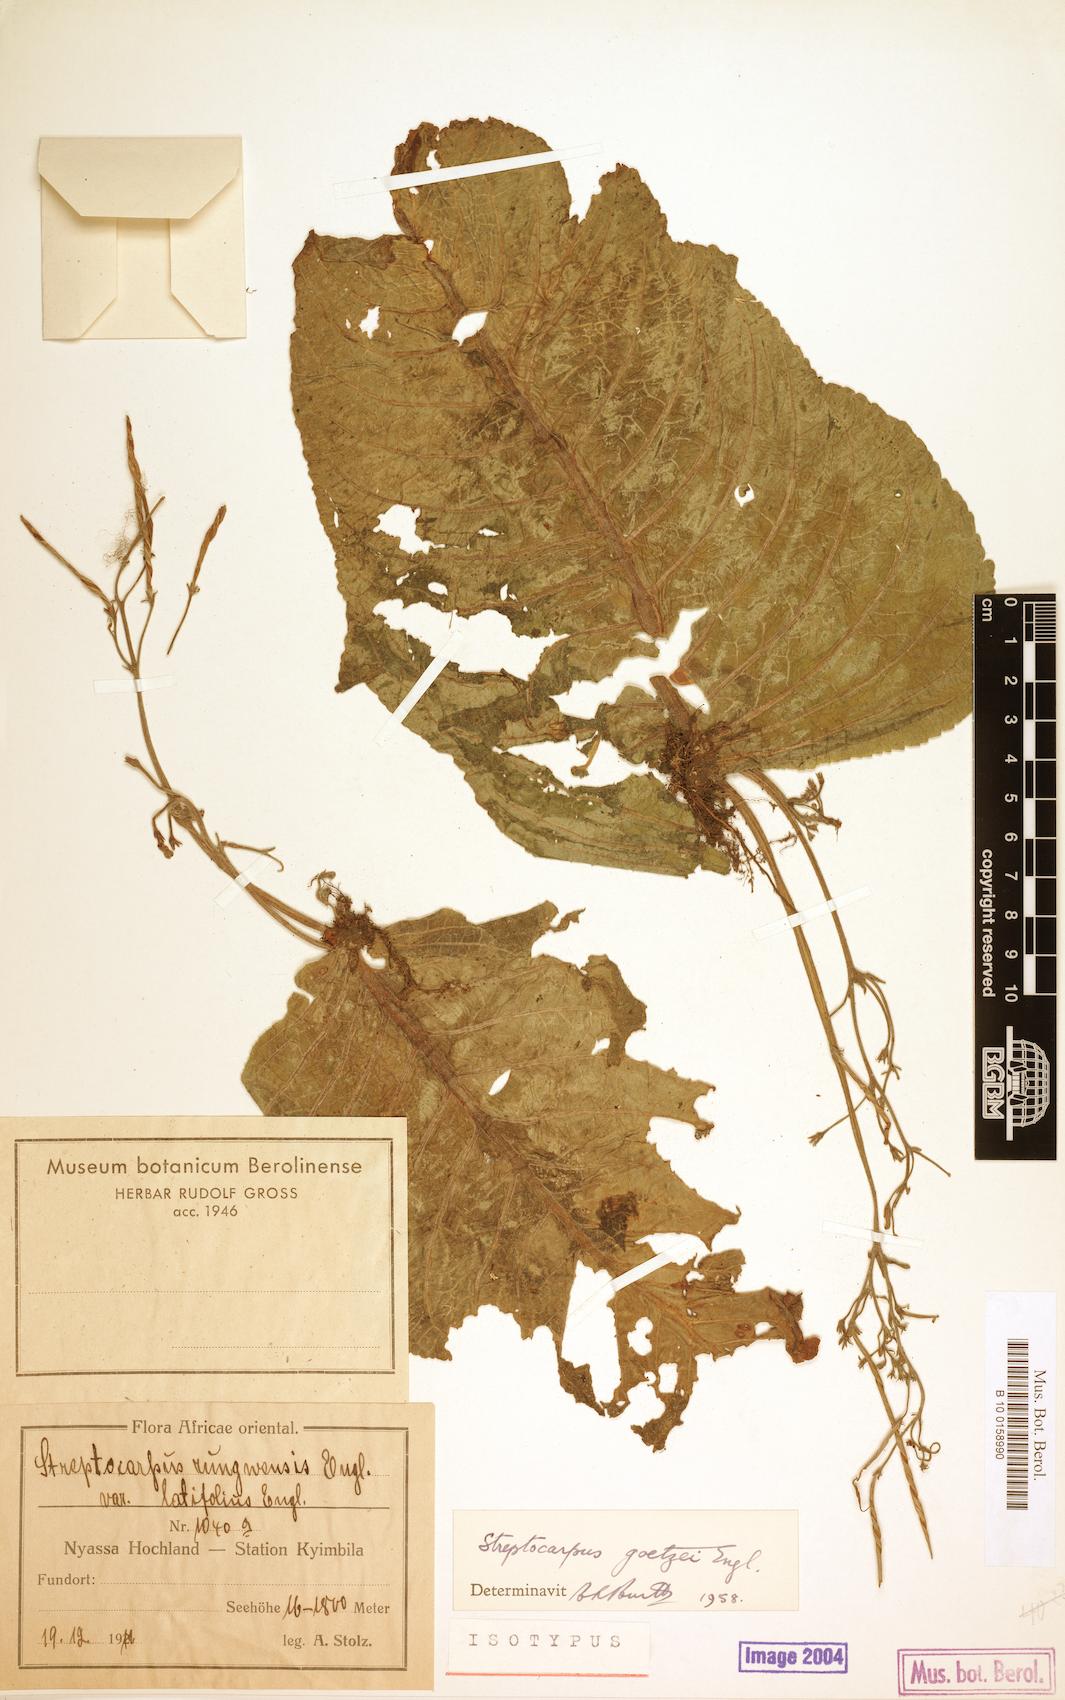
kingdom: Plantae
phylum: Tracheophyta
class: Magnoliopsida
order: Lamiales
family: Gesneriaceae
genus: Streptocarpus
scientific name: Streptocarpus goetzei
